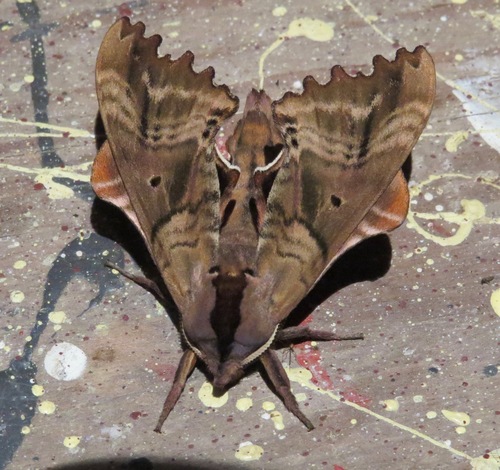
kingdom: Animalia
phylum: Arthropoda
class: Insecta
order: Lepidoptera
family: Sphingidae
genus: Paonias
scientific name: Paonias excaecata
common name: Blind-eyed sphinx
